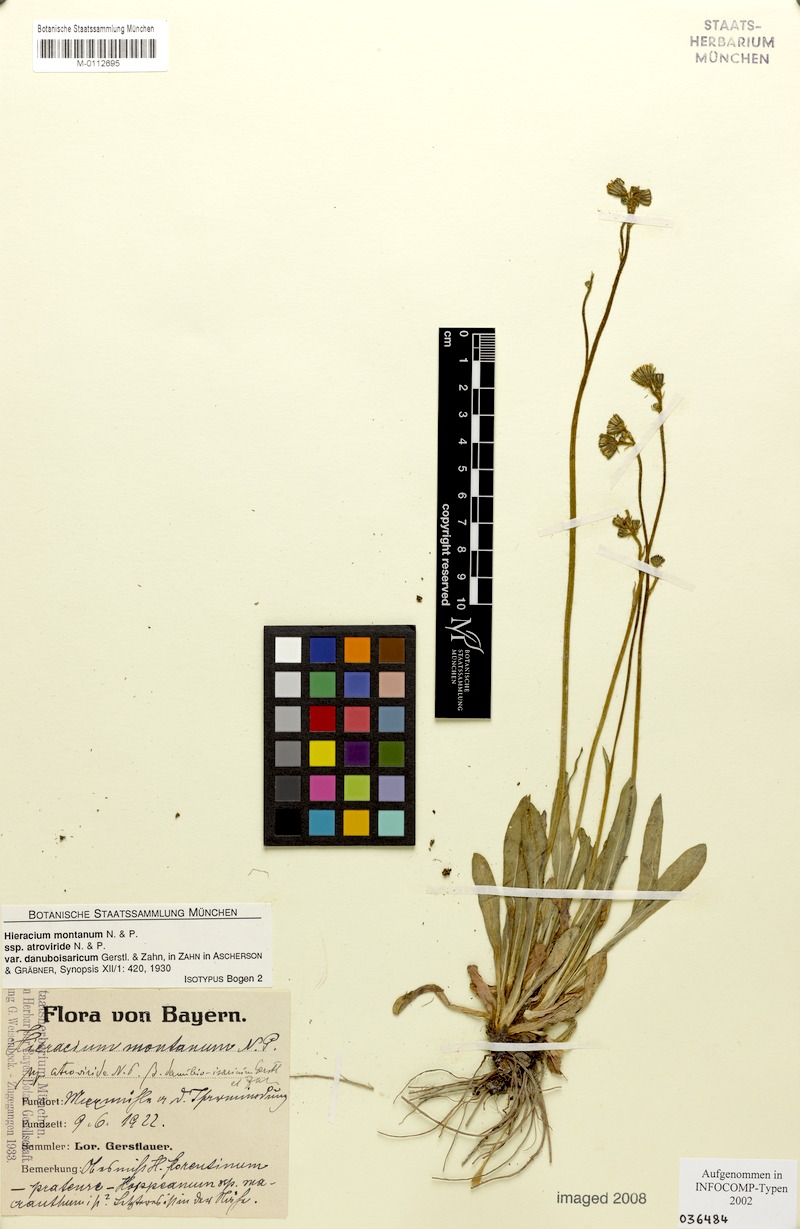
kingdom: Plantae
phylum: Tracheophyta
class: Magnoliopsida
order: Asterales
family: Asteraceae
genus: Pilosella
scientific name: Pilosella leptoclados
